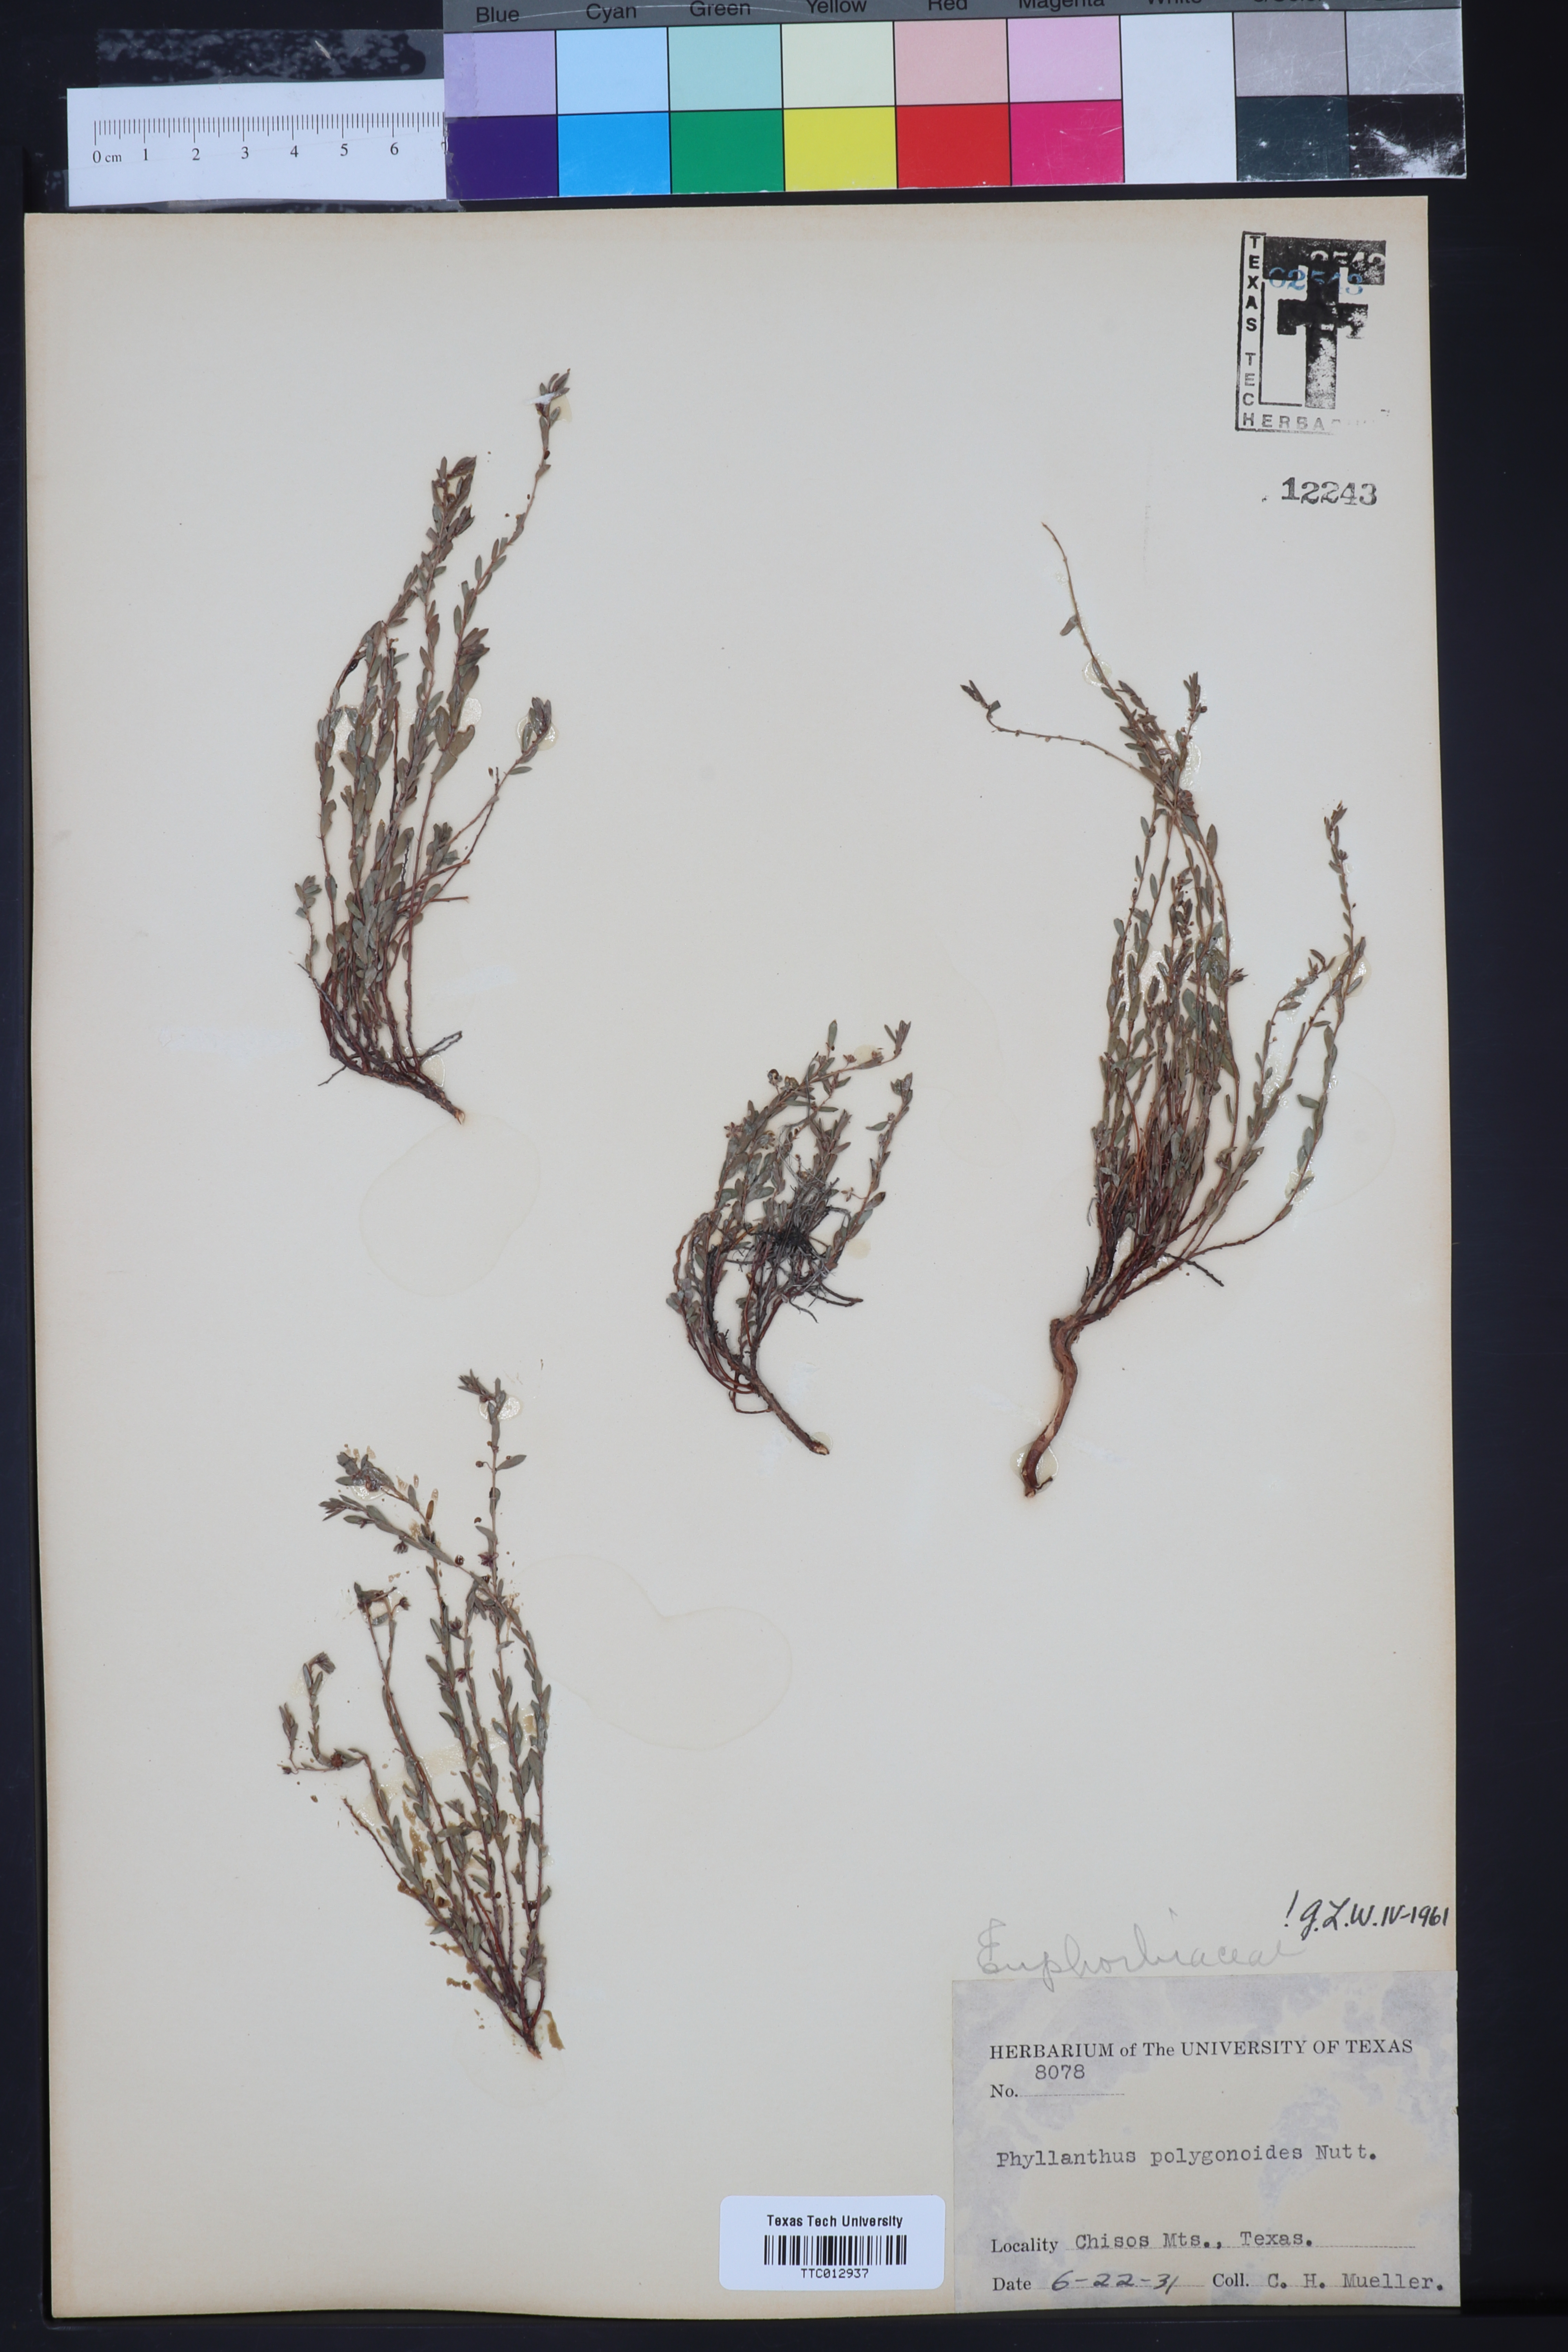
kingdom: Plantae
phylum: Tracheophyta
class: Magnoliopsida
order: Malpighiales
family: Phyllanthaceae
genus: Phyllanthus
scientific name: Phyllanthus polygonoides
